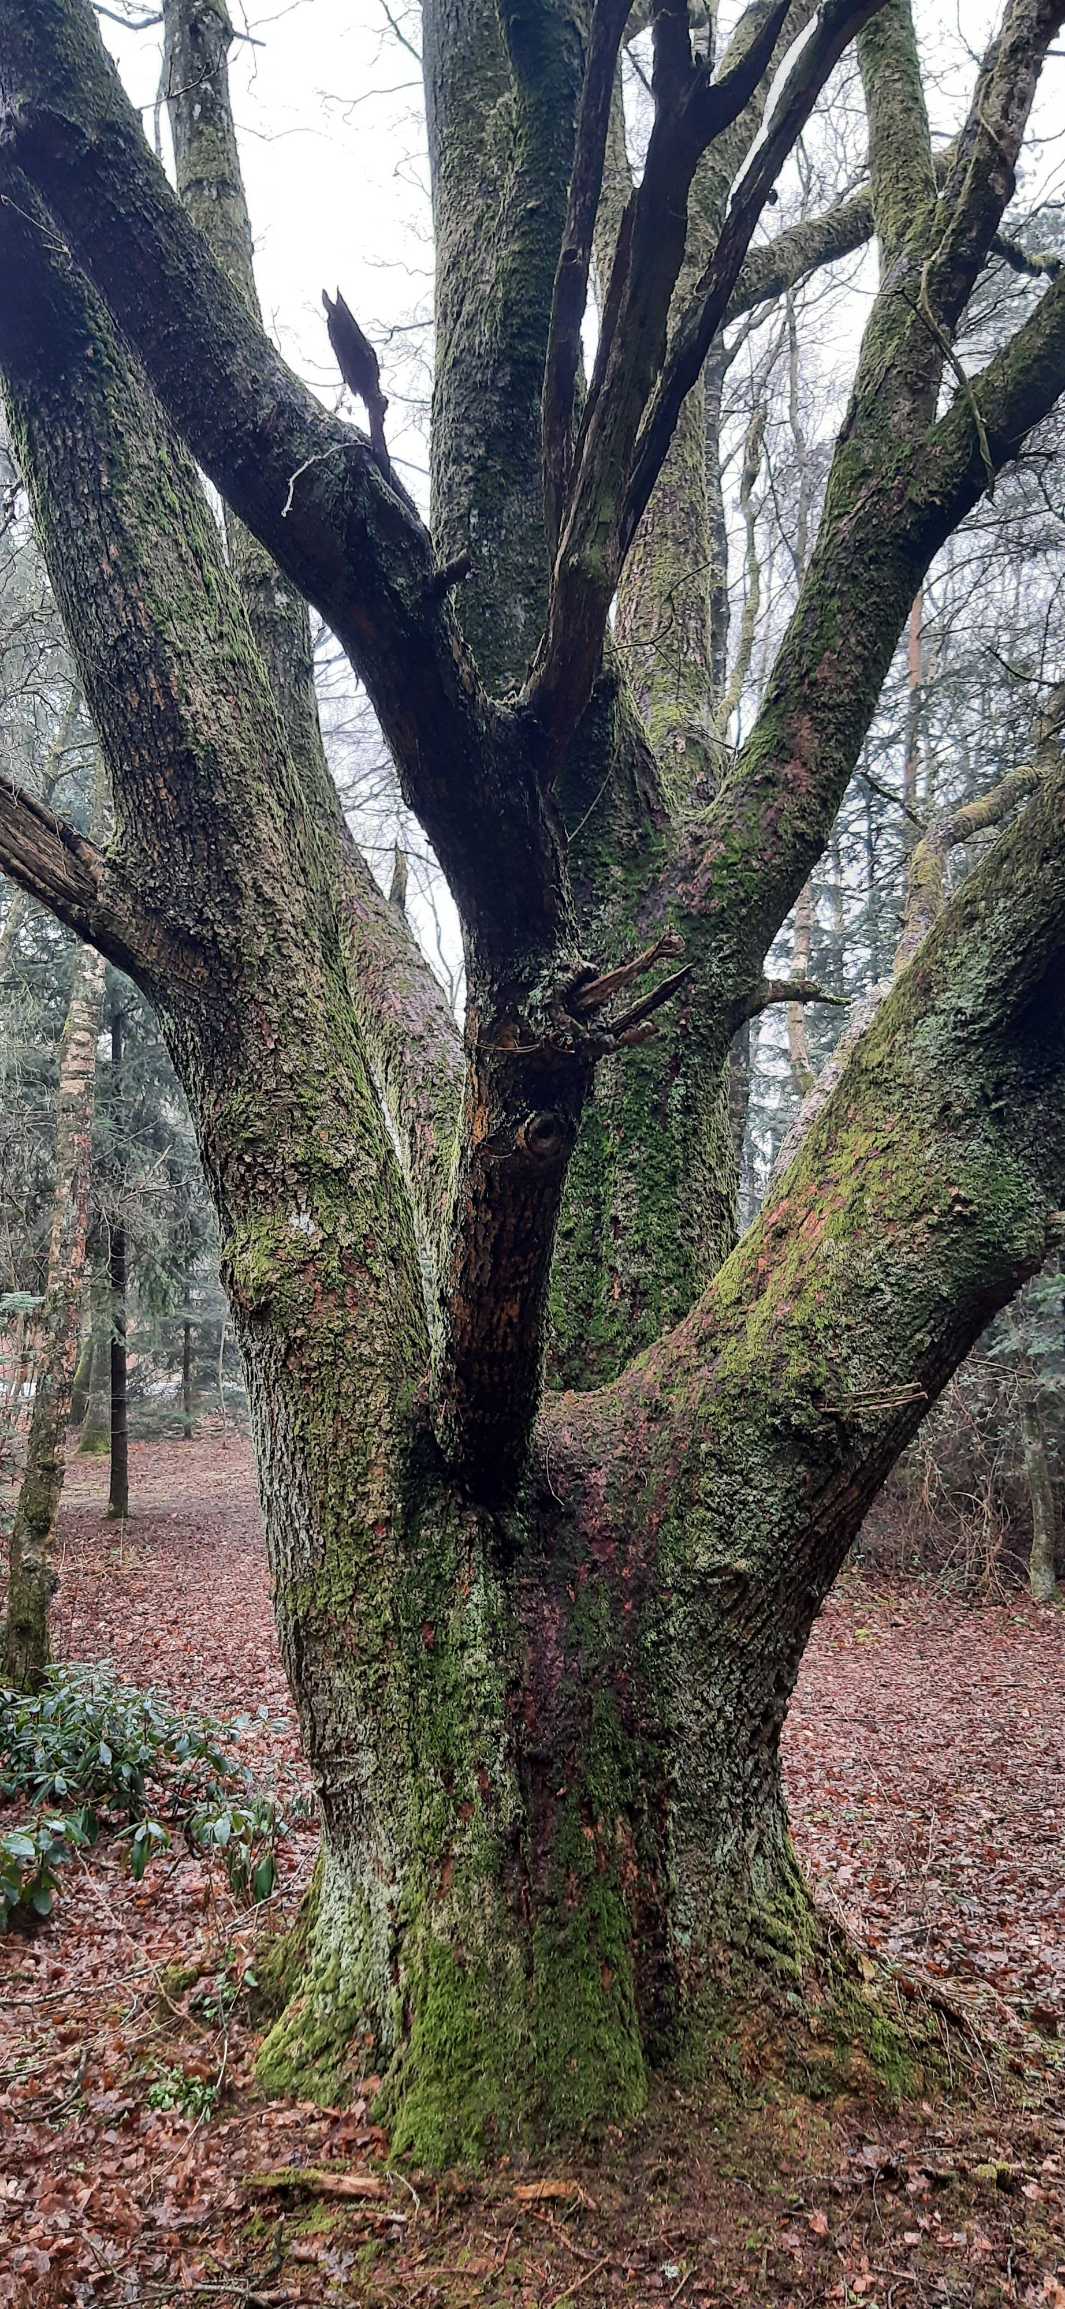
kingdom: Plantae
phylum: Tracheophyta
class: Magnoliopsida
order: Fagales
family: Fagaceae
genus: Quercus
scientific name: Quercus robur
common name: Stilk-eg/almindelig eg
